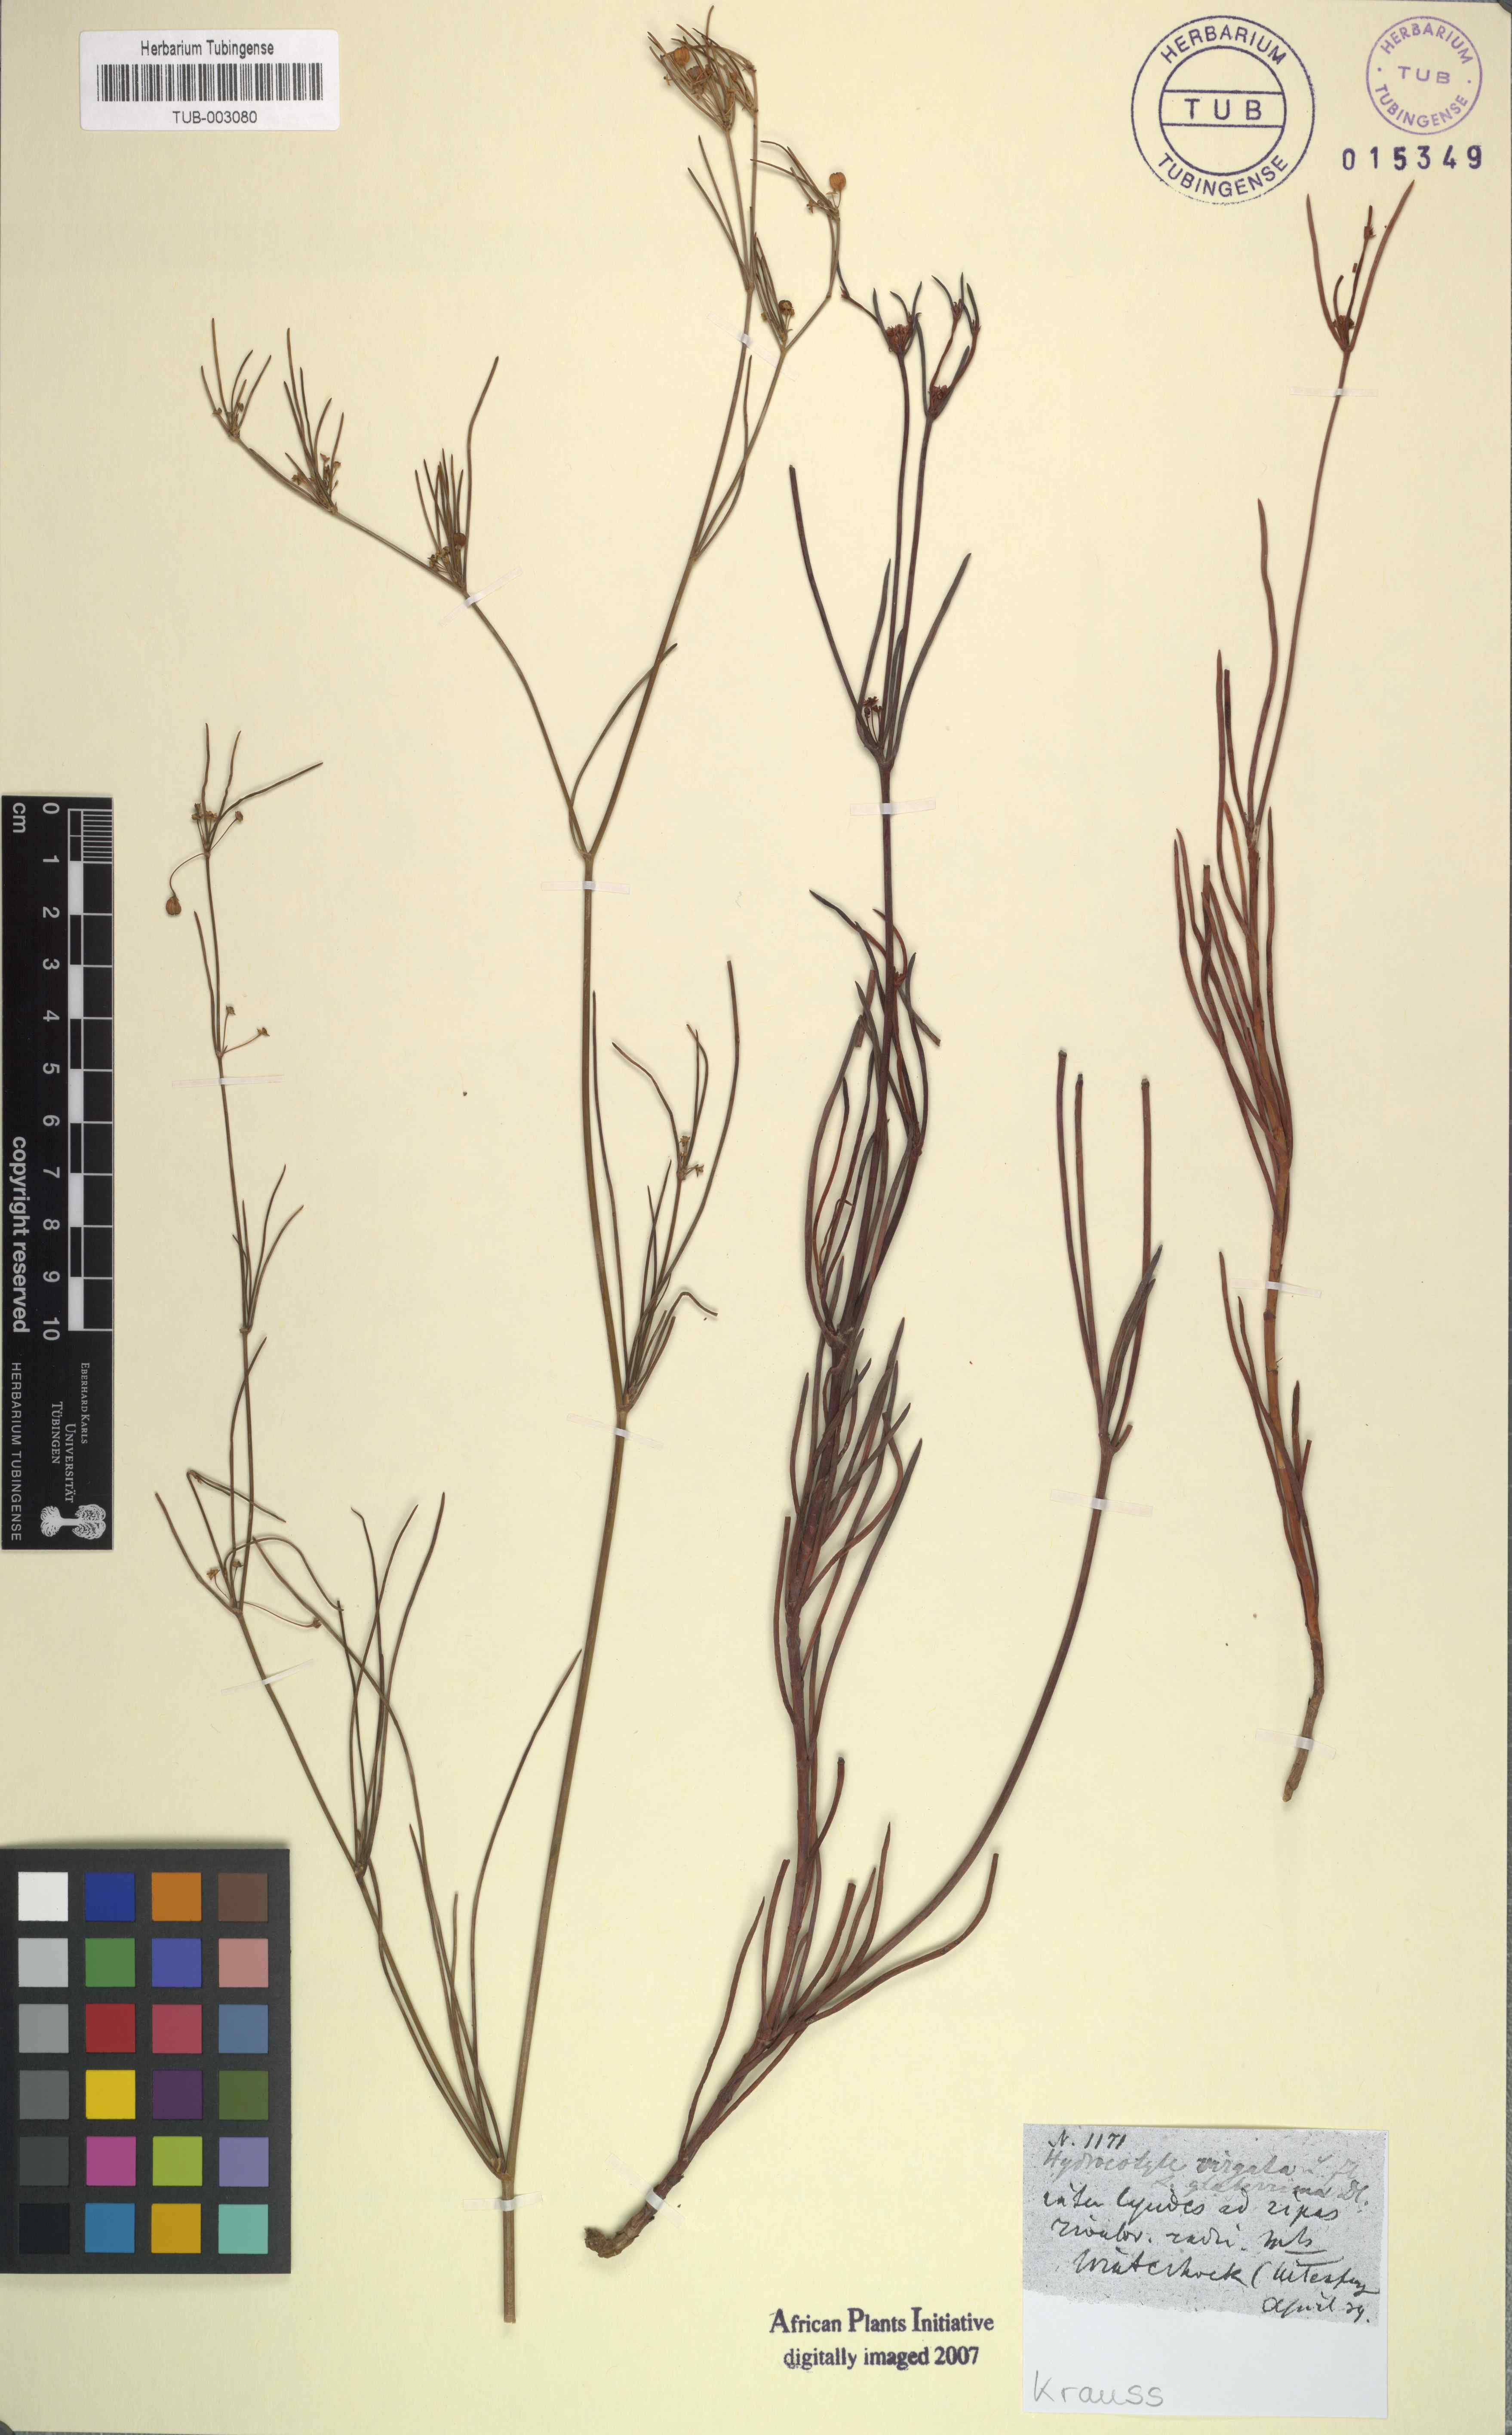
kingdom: Plantae
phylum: Tracheophyta
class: Magnoliopsida
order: Apiales
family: Apiaceae
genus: Centella
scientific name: Centella virgata
